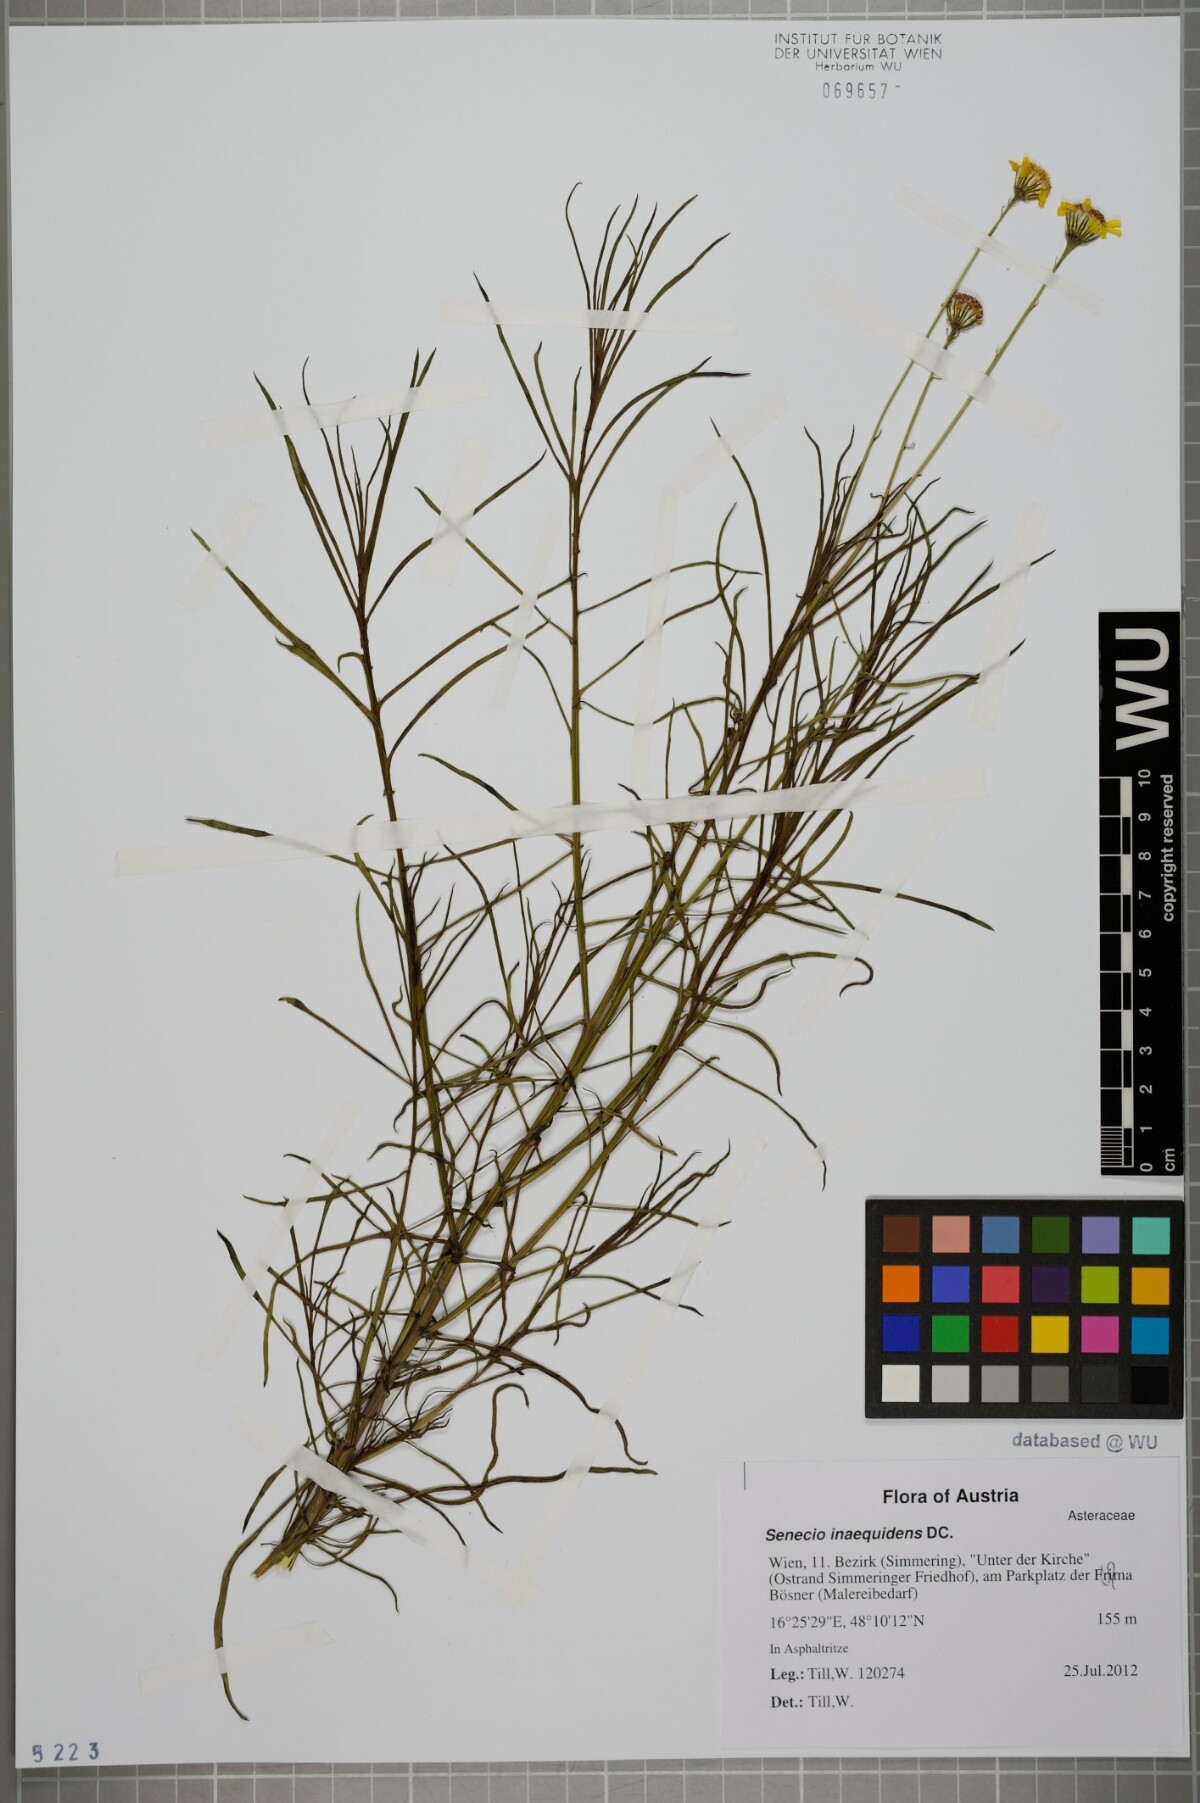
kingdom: Plantae
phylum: Tracheophyta
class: Magnoliopsida
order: Asterales
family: Asteraceae
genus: Senecio
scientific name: Senecio inaequidens
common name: Narrow-leaved ragwort
